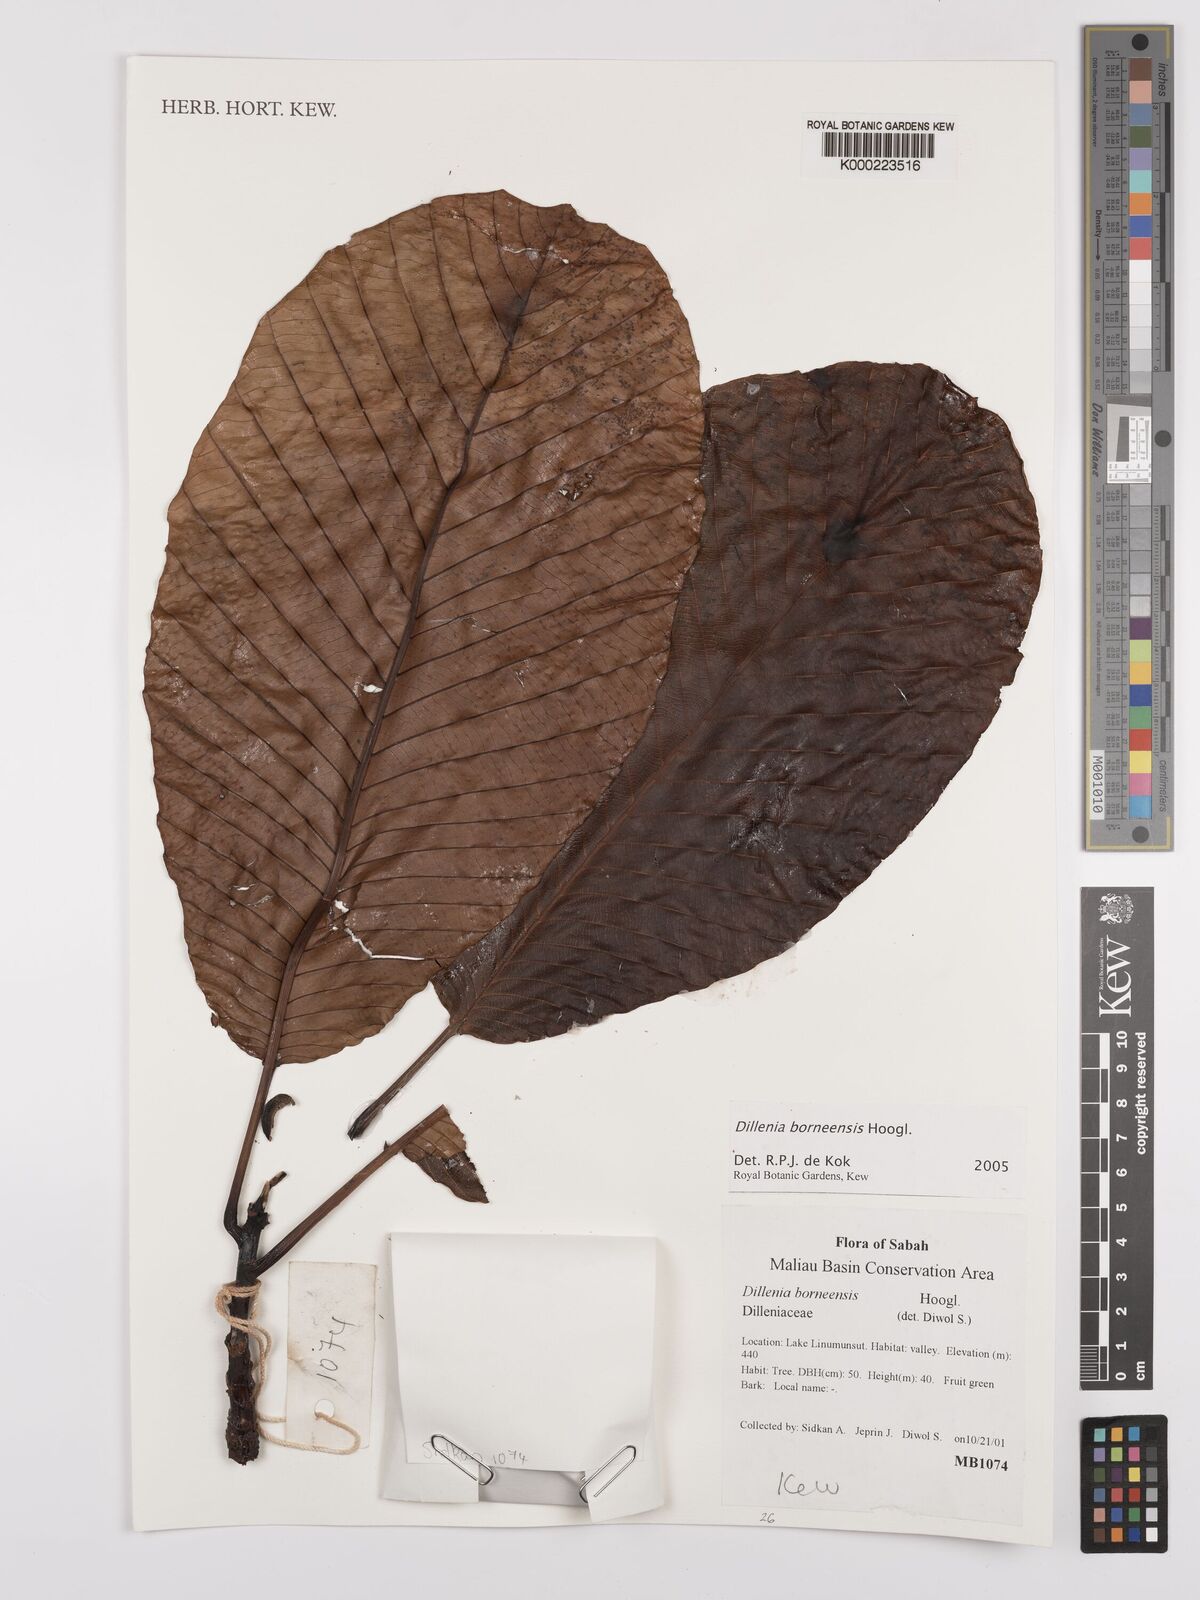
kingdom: Plantae
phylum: Tracheophyta
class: Magnoliopsida
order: Dilleniales
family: Dilleniaceae
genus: Dillenia
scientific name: Dillenia borneensis
